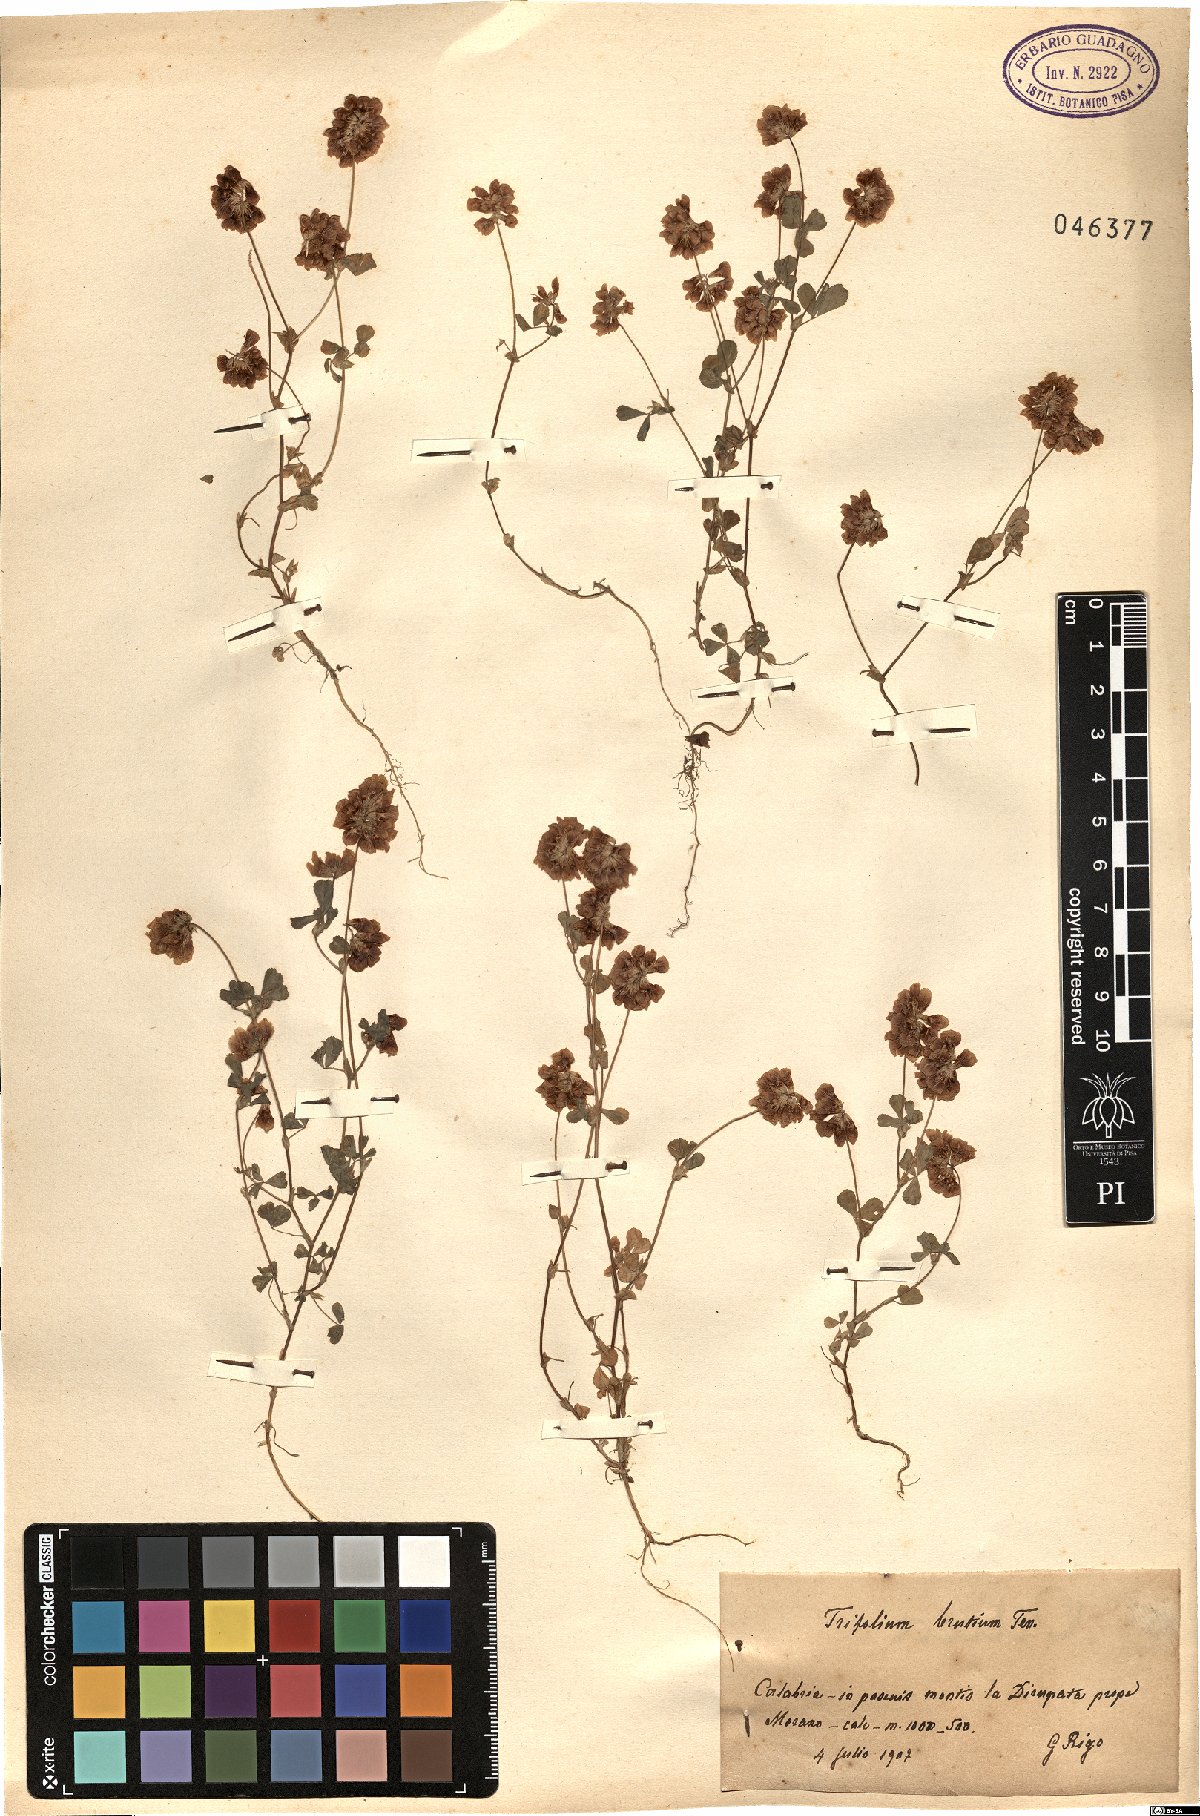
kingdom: Plantae
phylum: Tracheophyta
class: Magnoliopsida
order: Fabales
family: Fabaceae
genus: Trifolium
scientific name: Trifolium brutium
